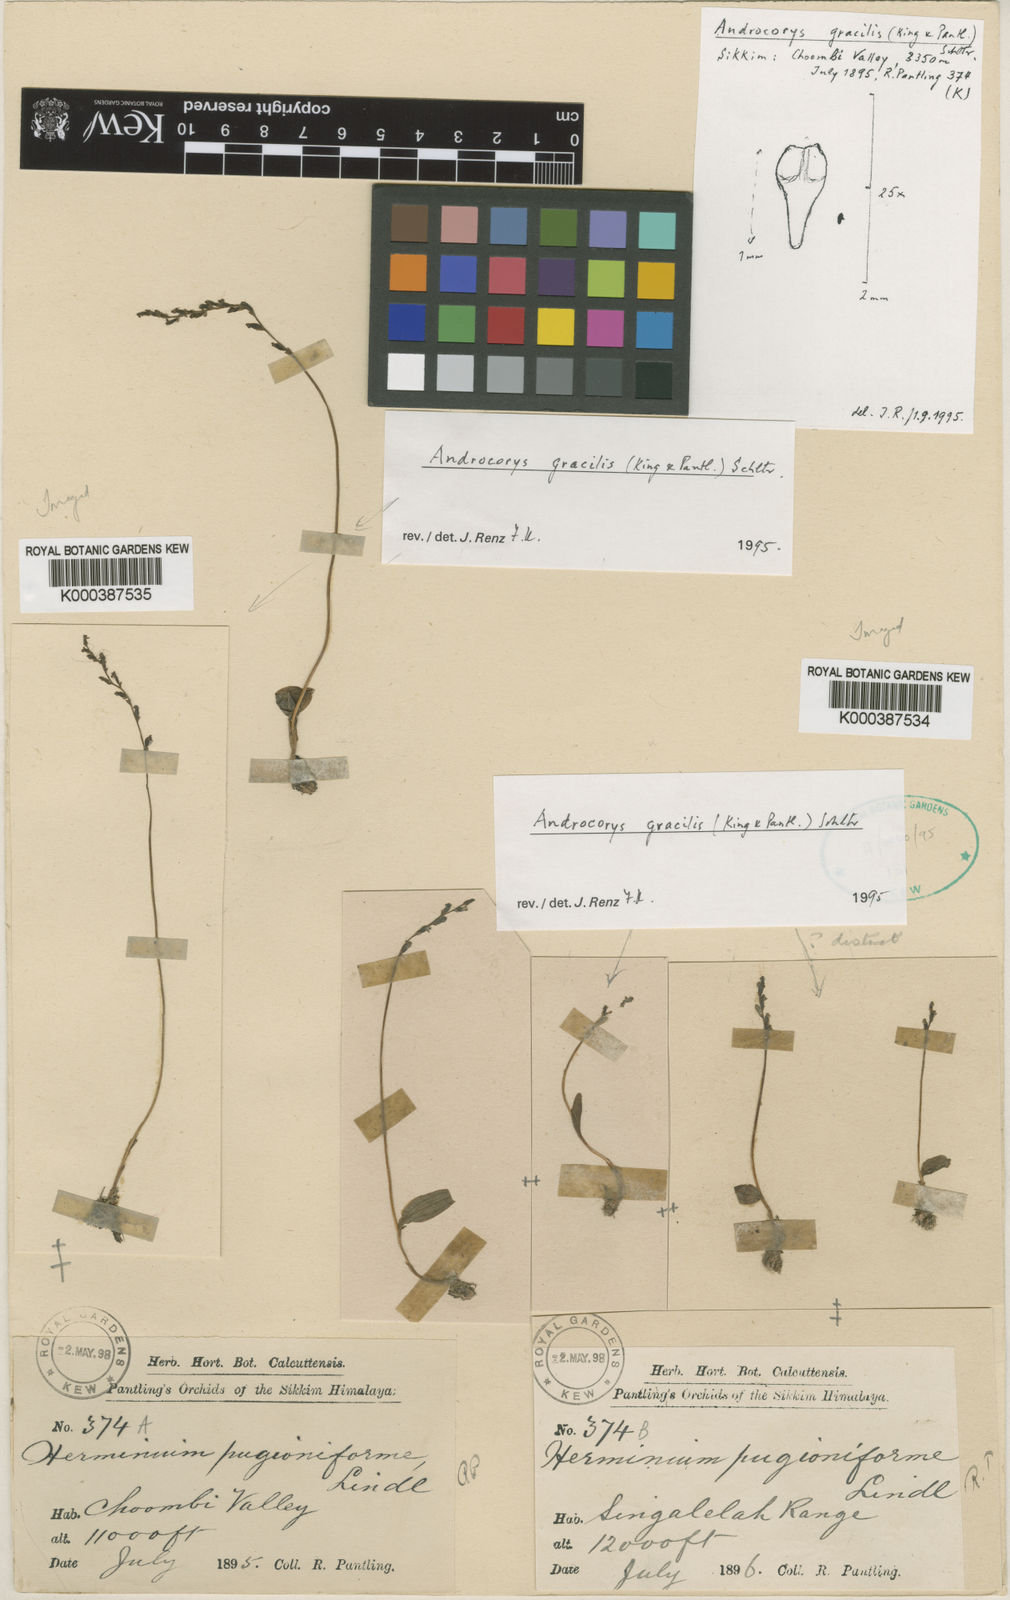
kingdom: Plantae
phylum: Tracheophyta
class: Liliopsida
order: Asparagales
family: Orchidaceae
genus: Herminium
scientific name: Herminium gracile
